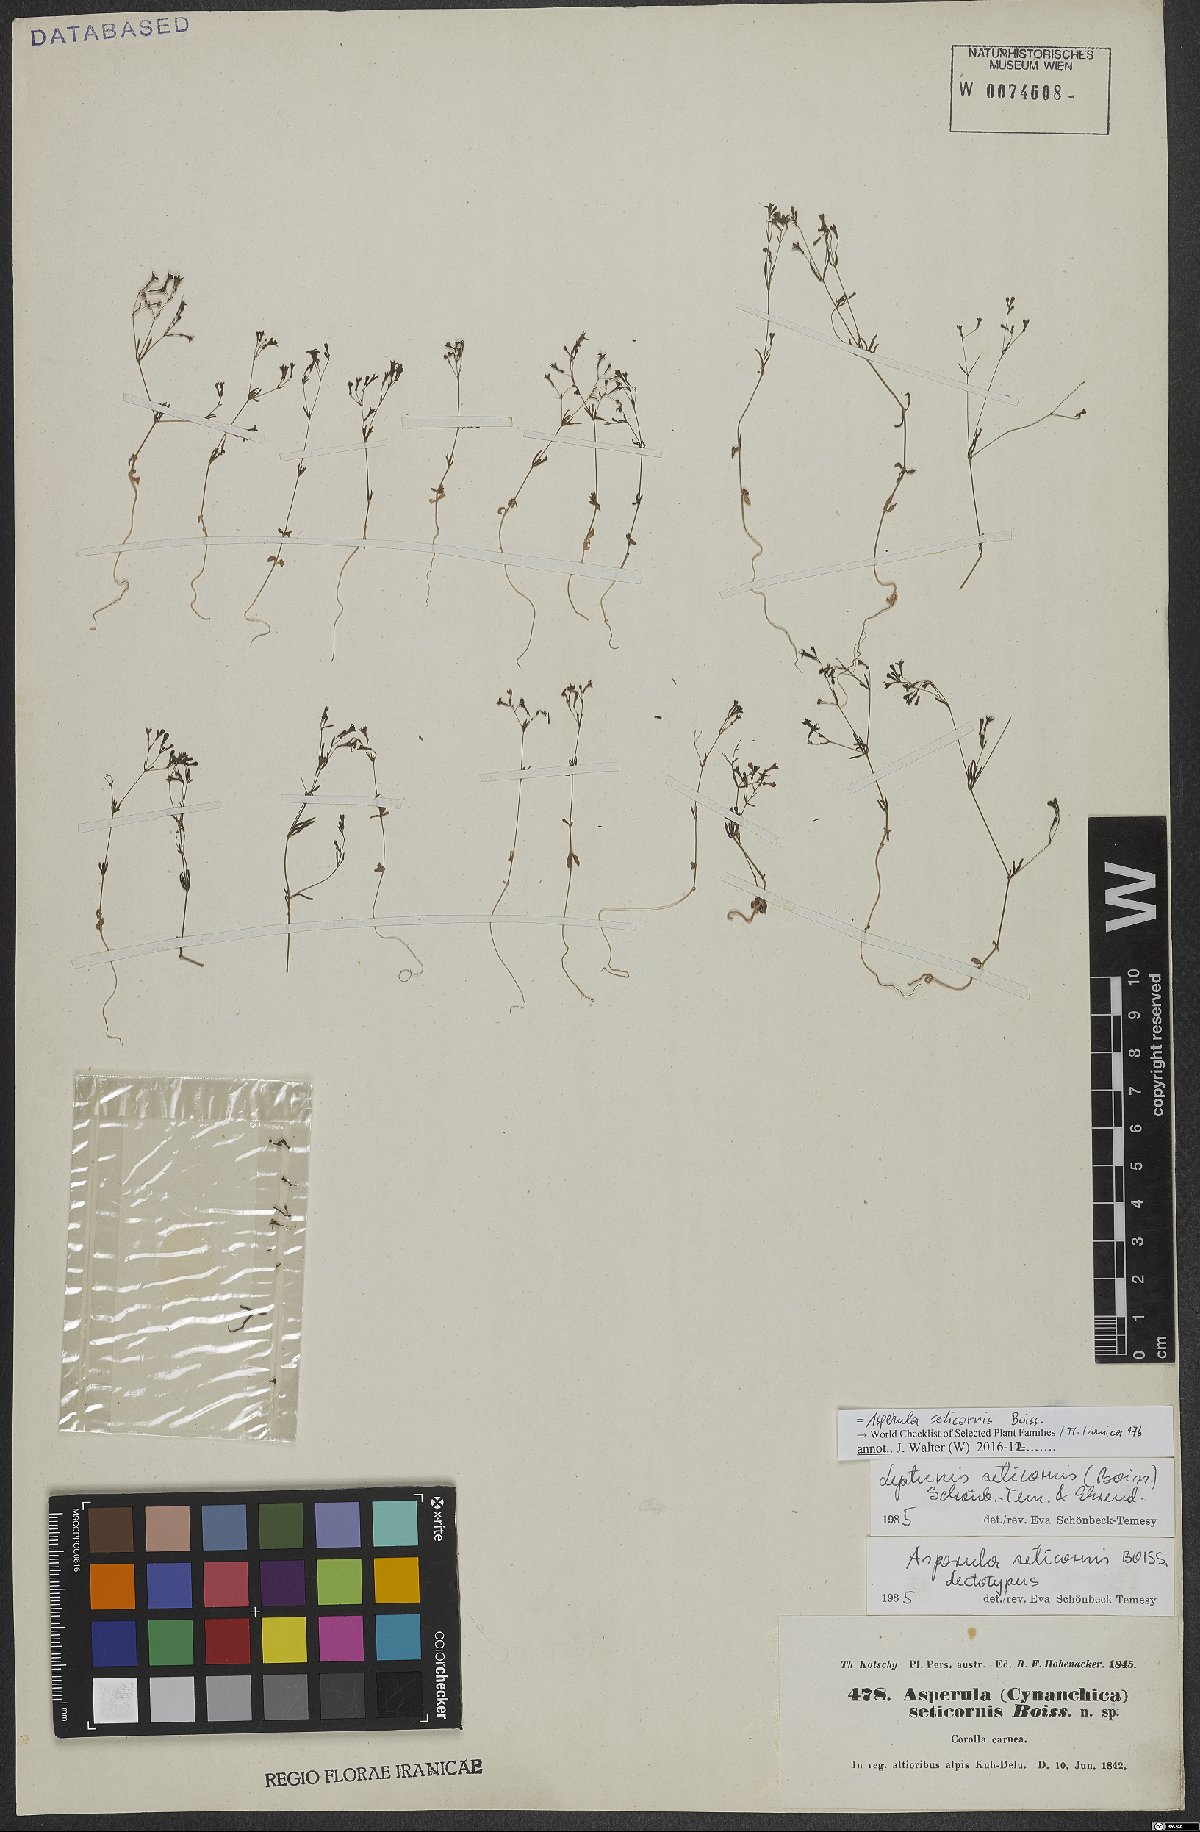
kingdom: Plantae
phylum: Tracheophyta
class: Magnoliopsida
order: Gentianales
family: Rubiaceae
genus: Asperula
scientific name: Asperula seticornis
